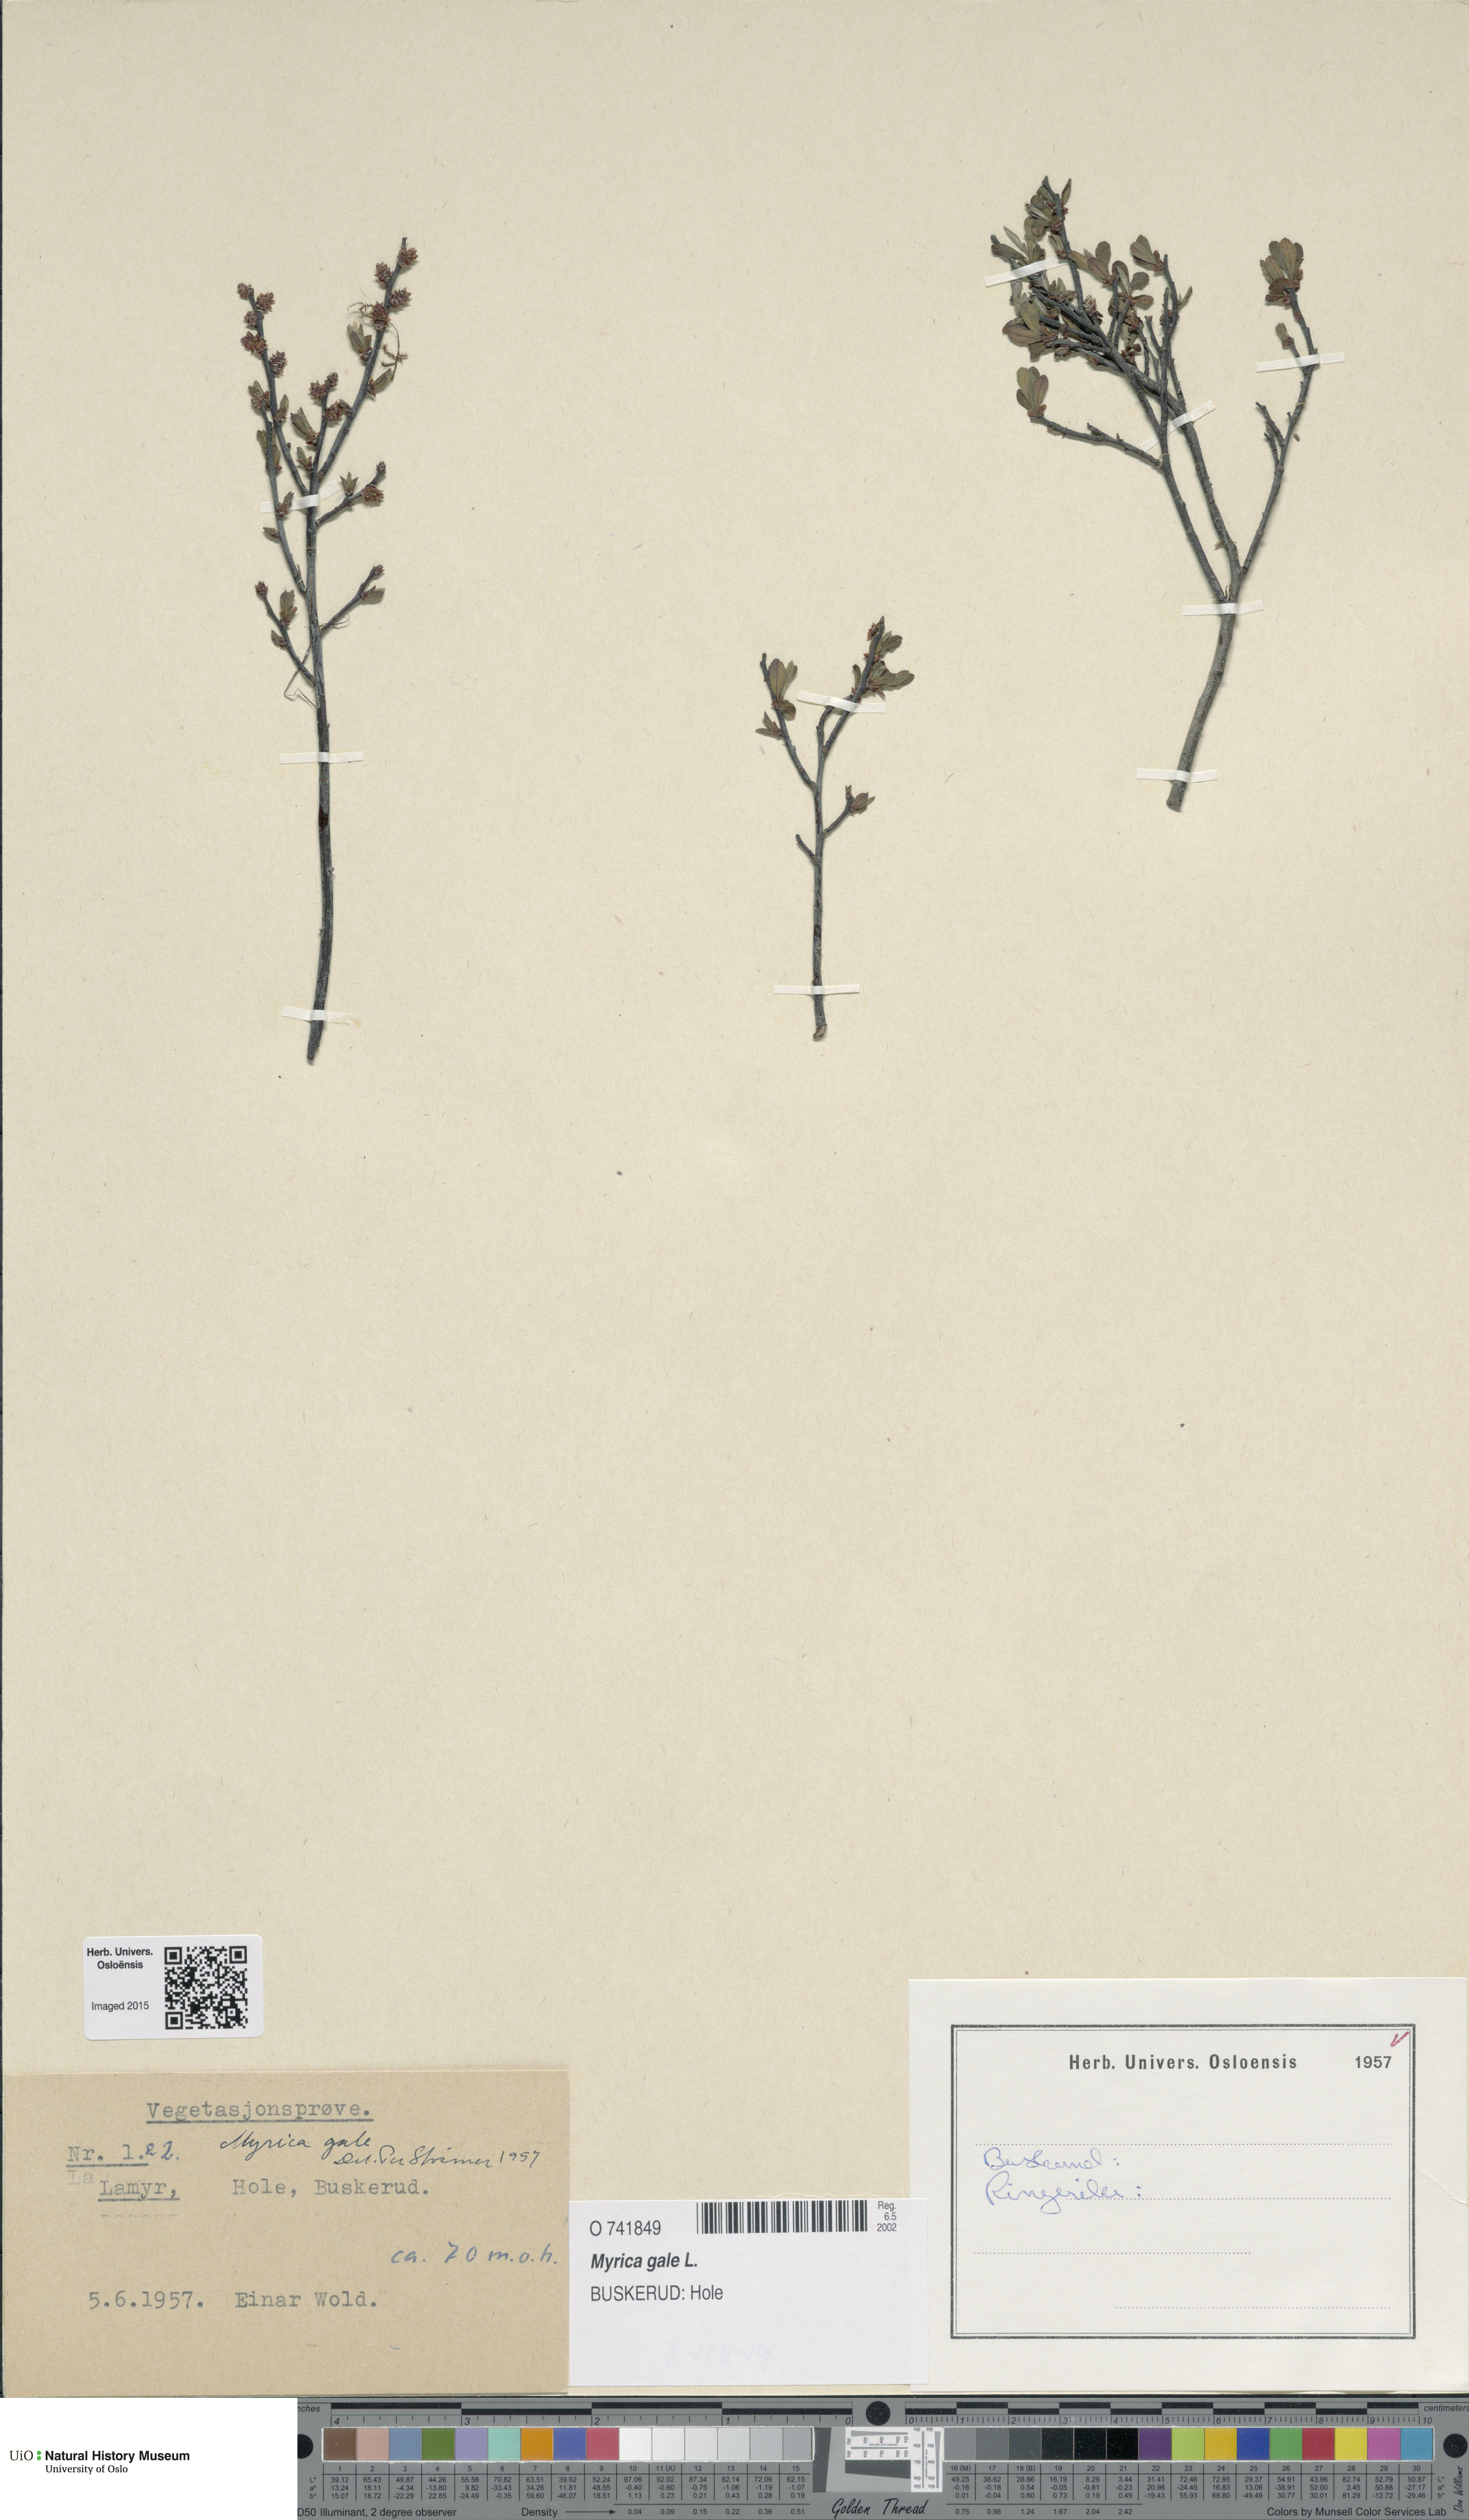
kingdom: Plantae
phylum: Tracheophyta
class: Magnoliopsida
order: Fagales
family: Myricaceae
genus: Myrica
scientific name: Myrica gale
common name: Sweet gale
